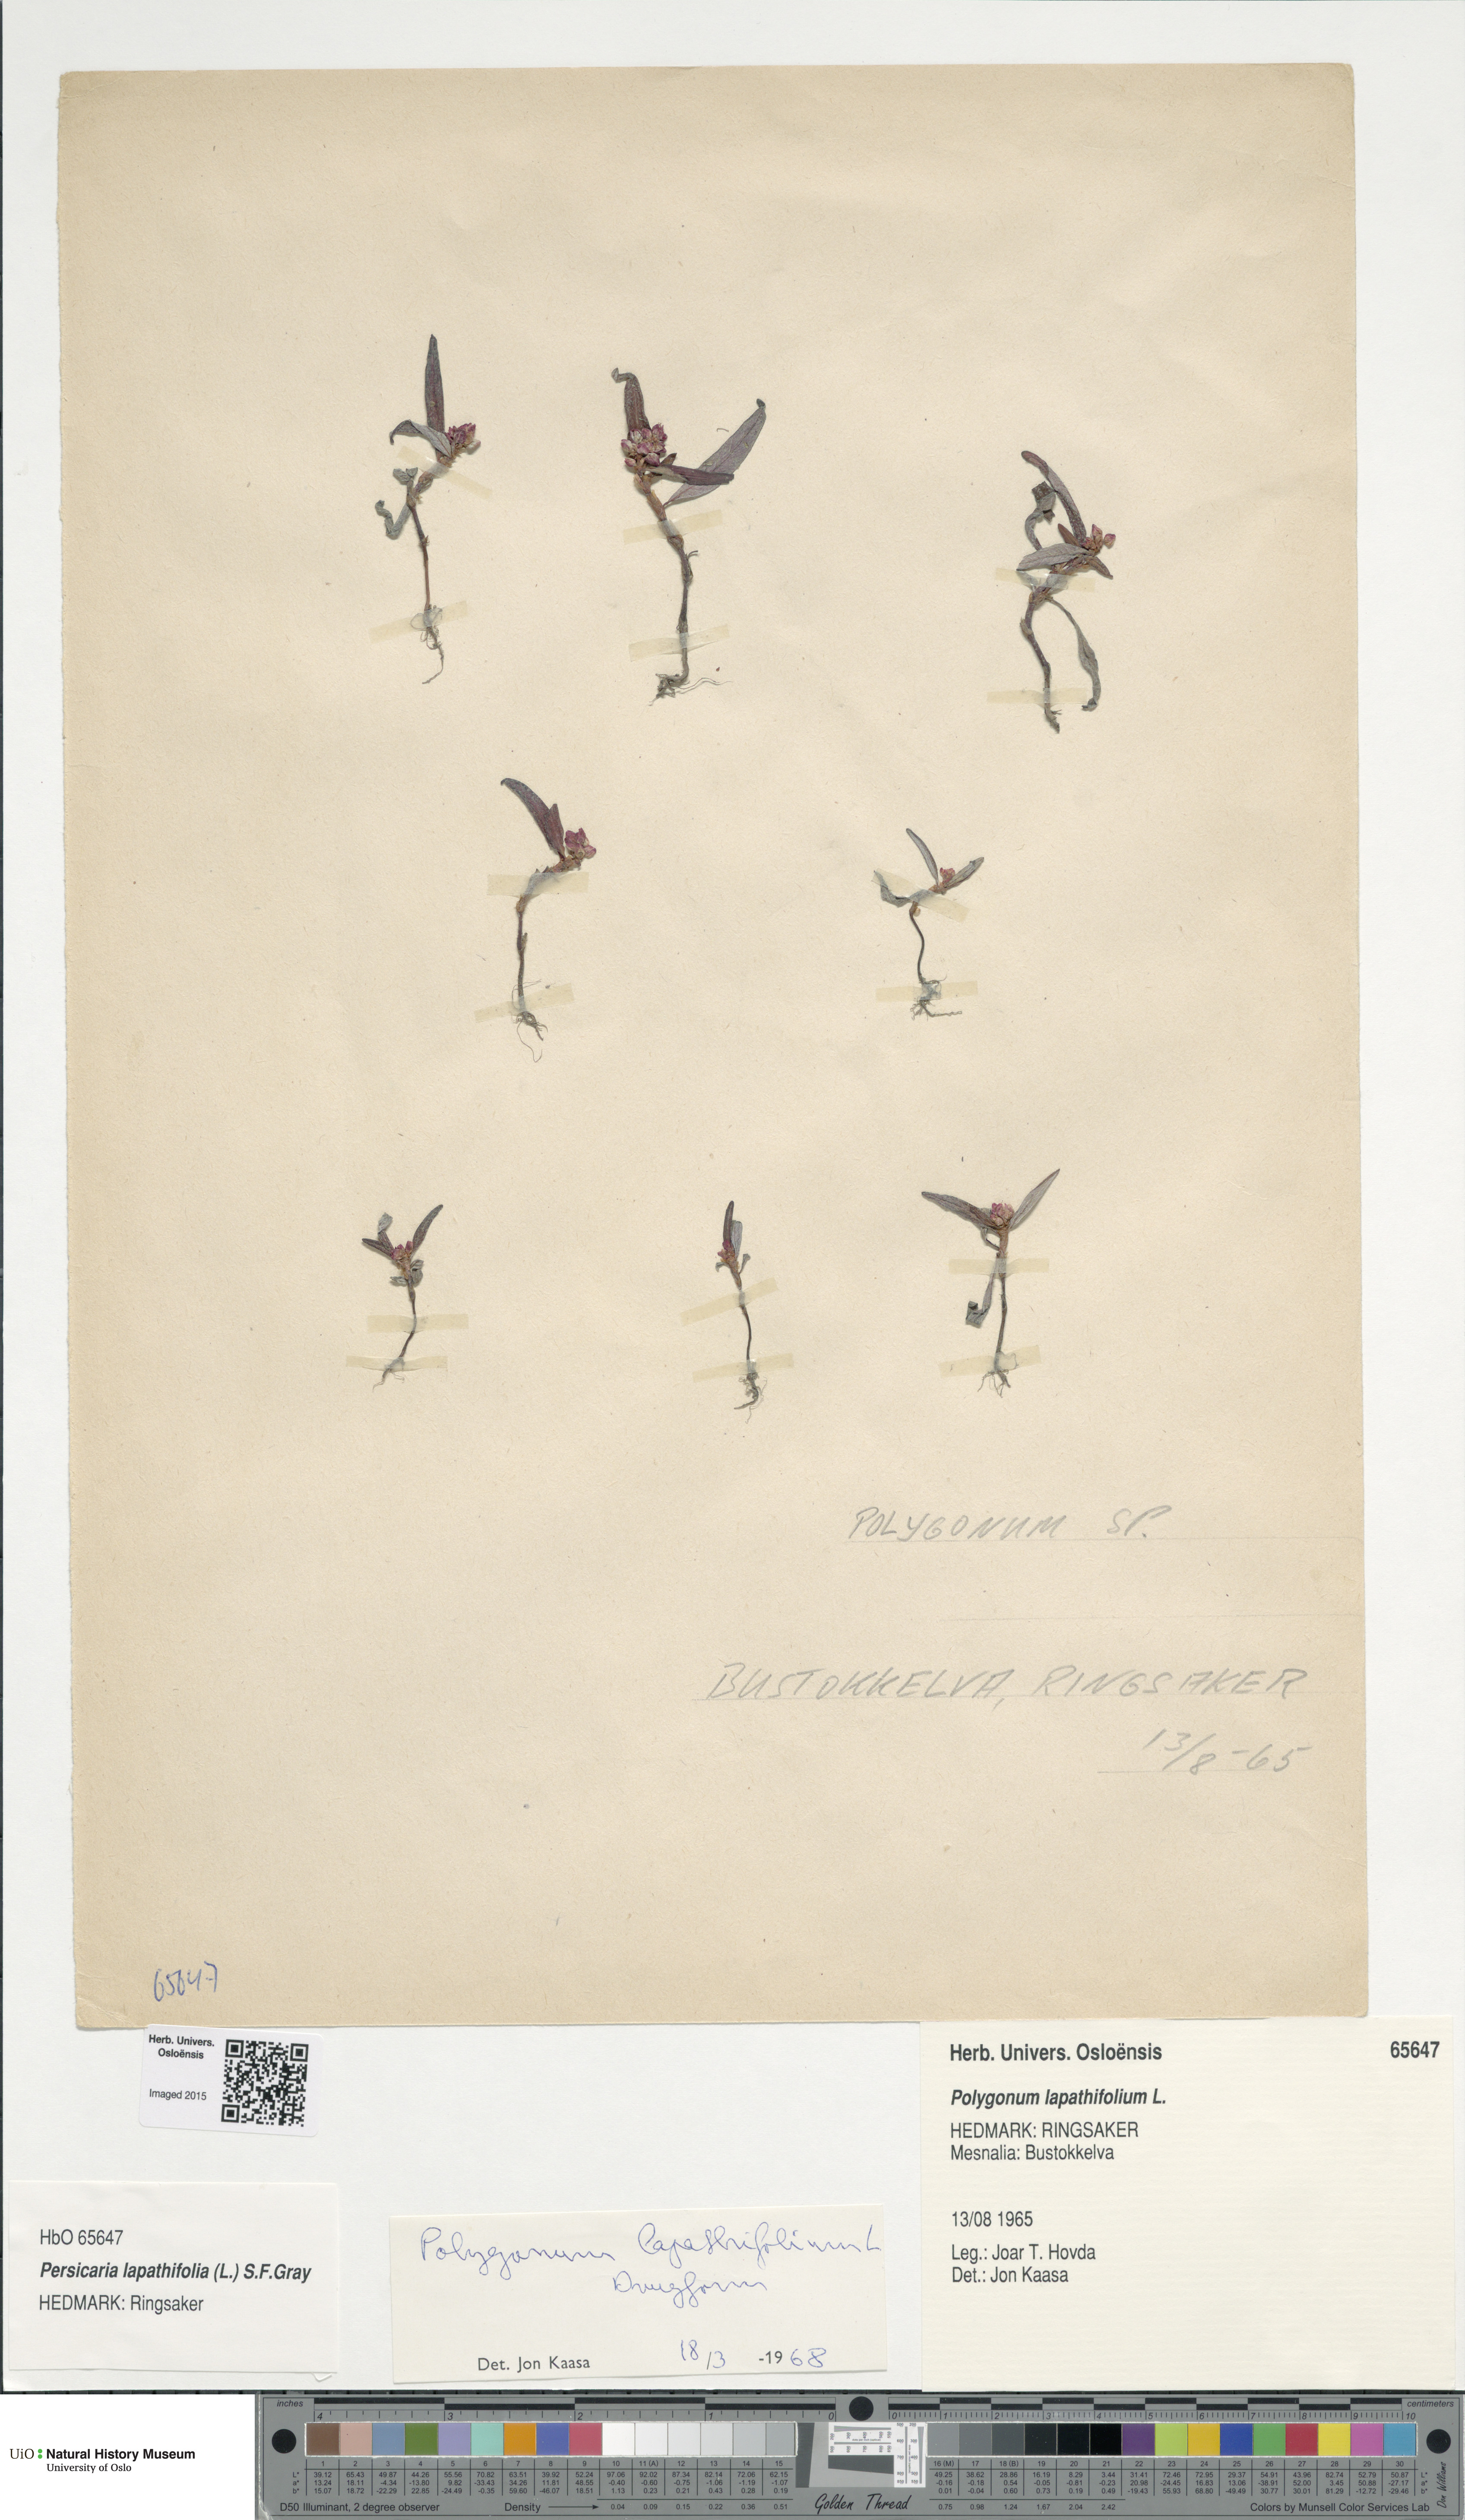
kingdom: Plantae
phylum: Tracheophyta
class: Magnoliopsida
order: Caryophyllales
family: Polygonaceae
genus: Persicaria
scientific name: Persicaria lapathifolia
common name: Curlytop knotweed
